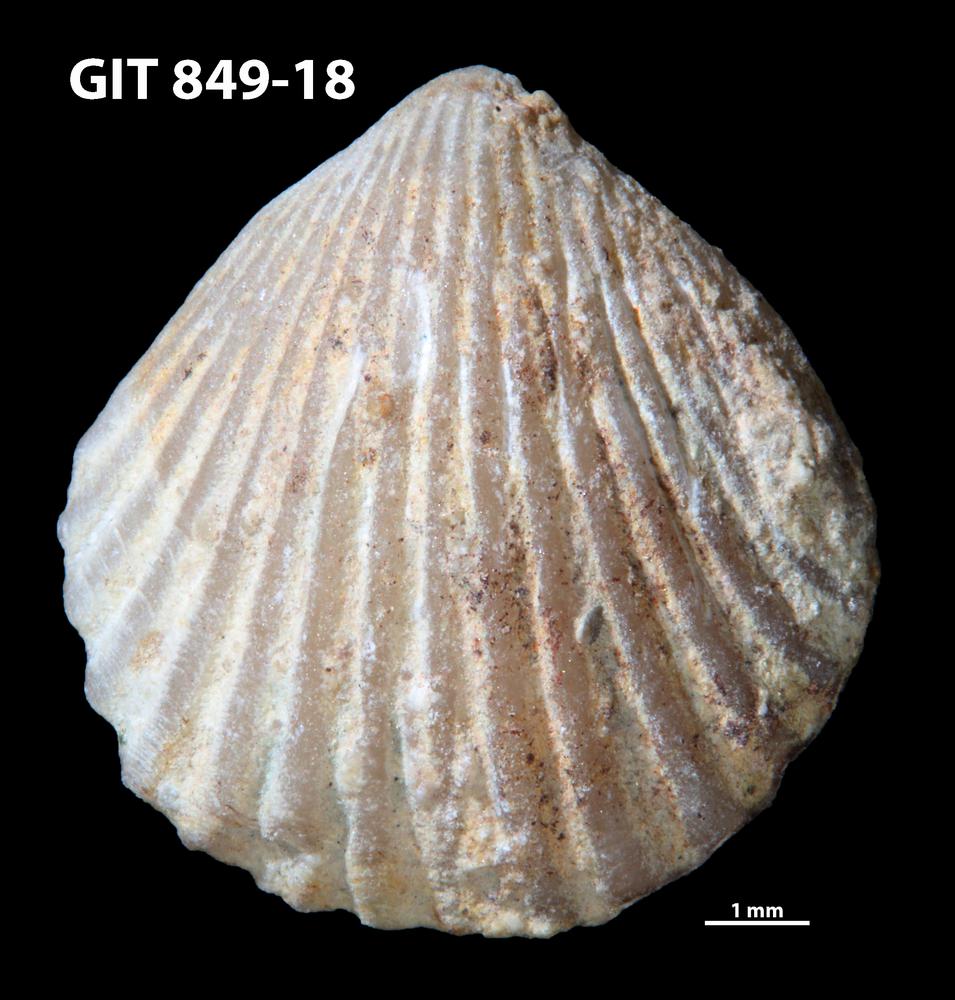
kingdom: Animalia
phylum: Brachiopoda
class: Rhynchonellata
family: Atrypinidae
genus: Clintonella
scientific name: Clintonella
